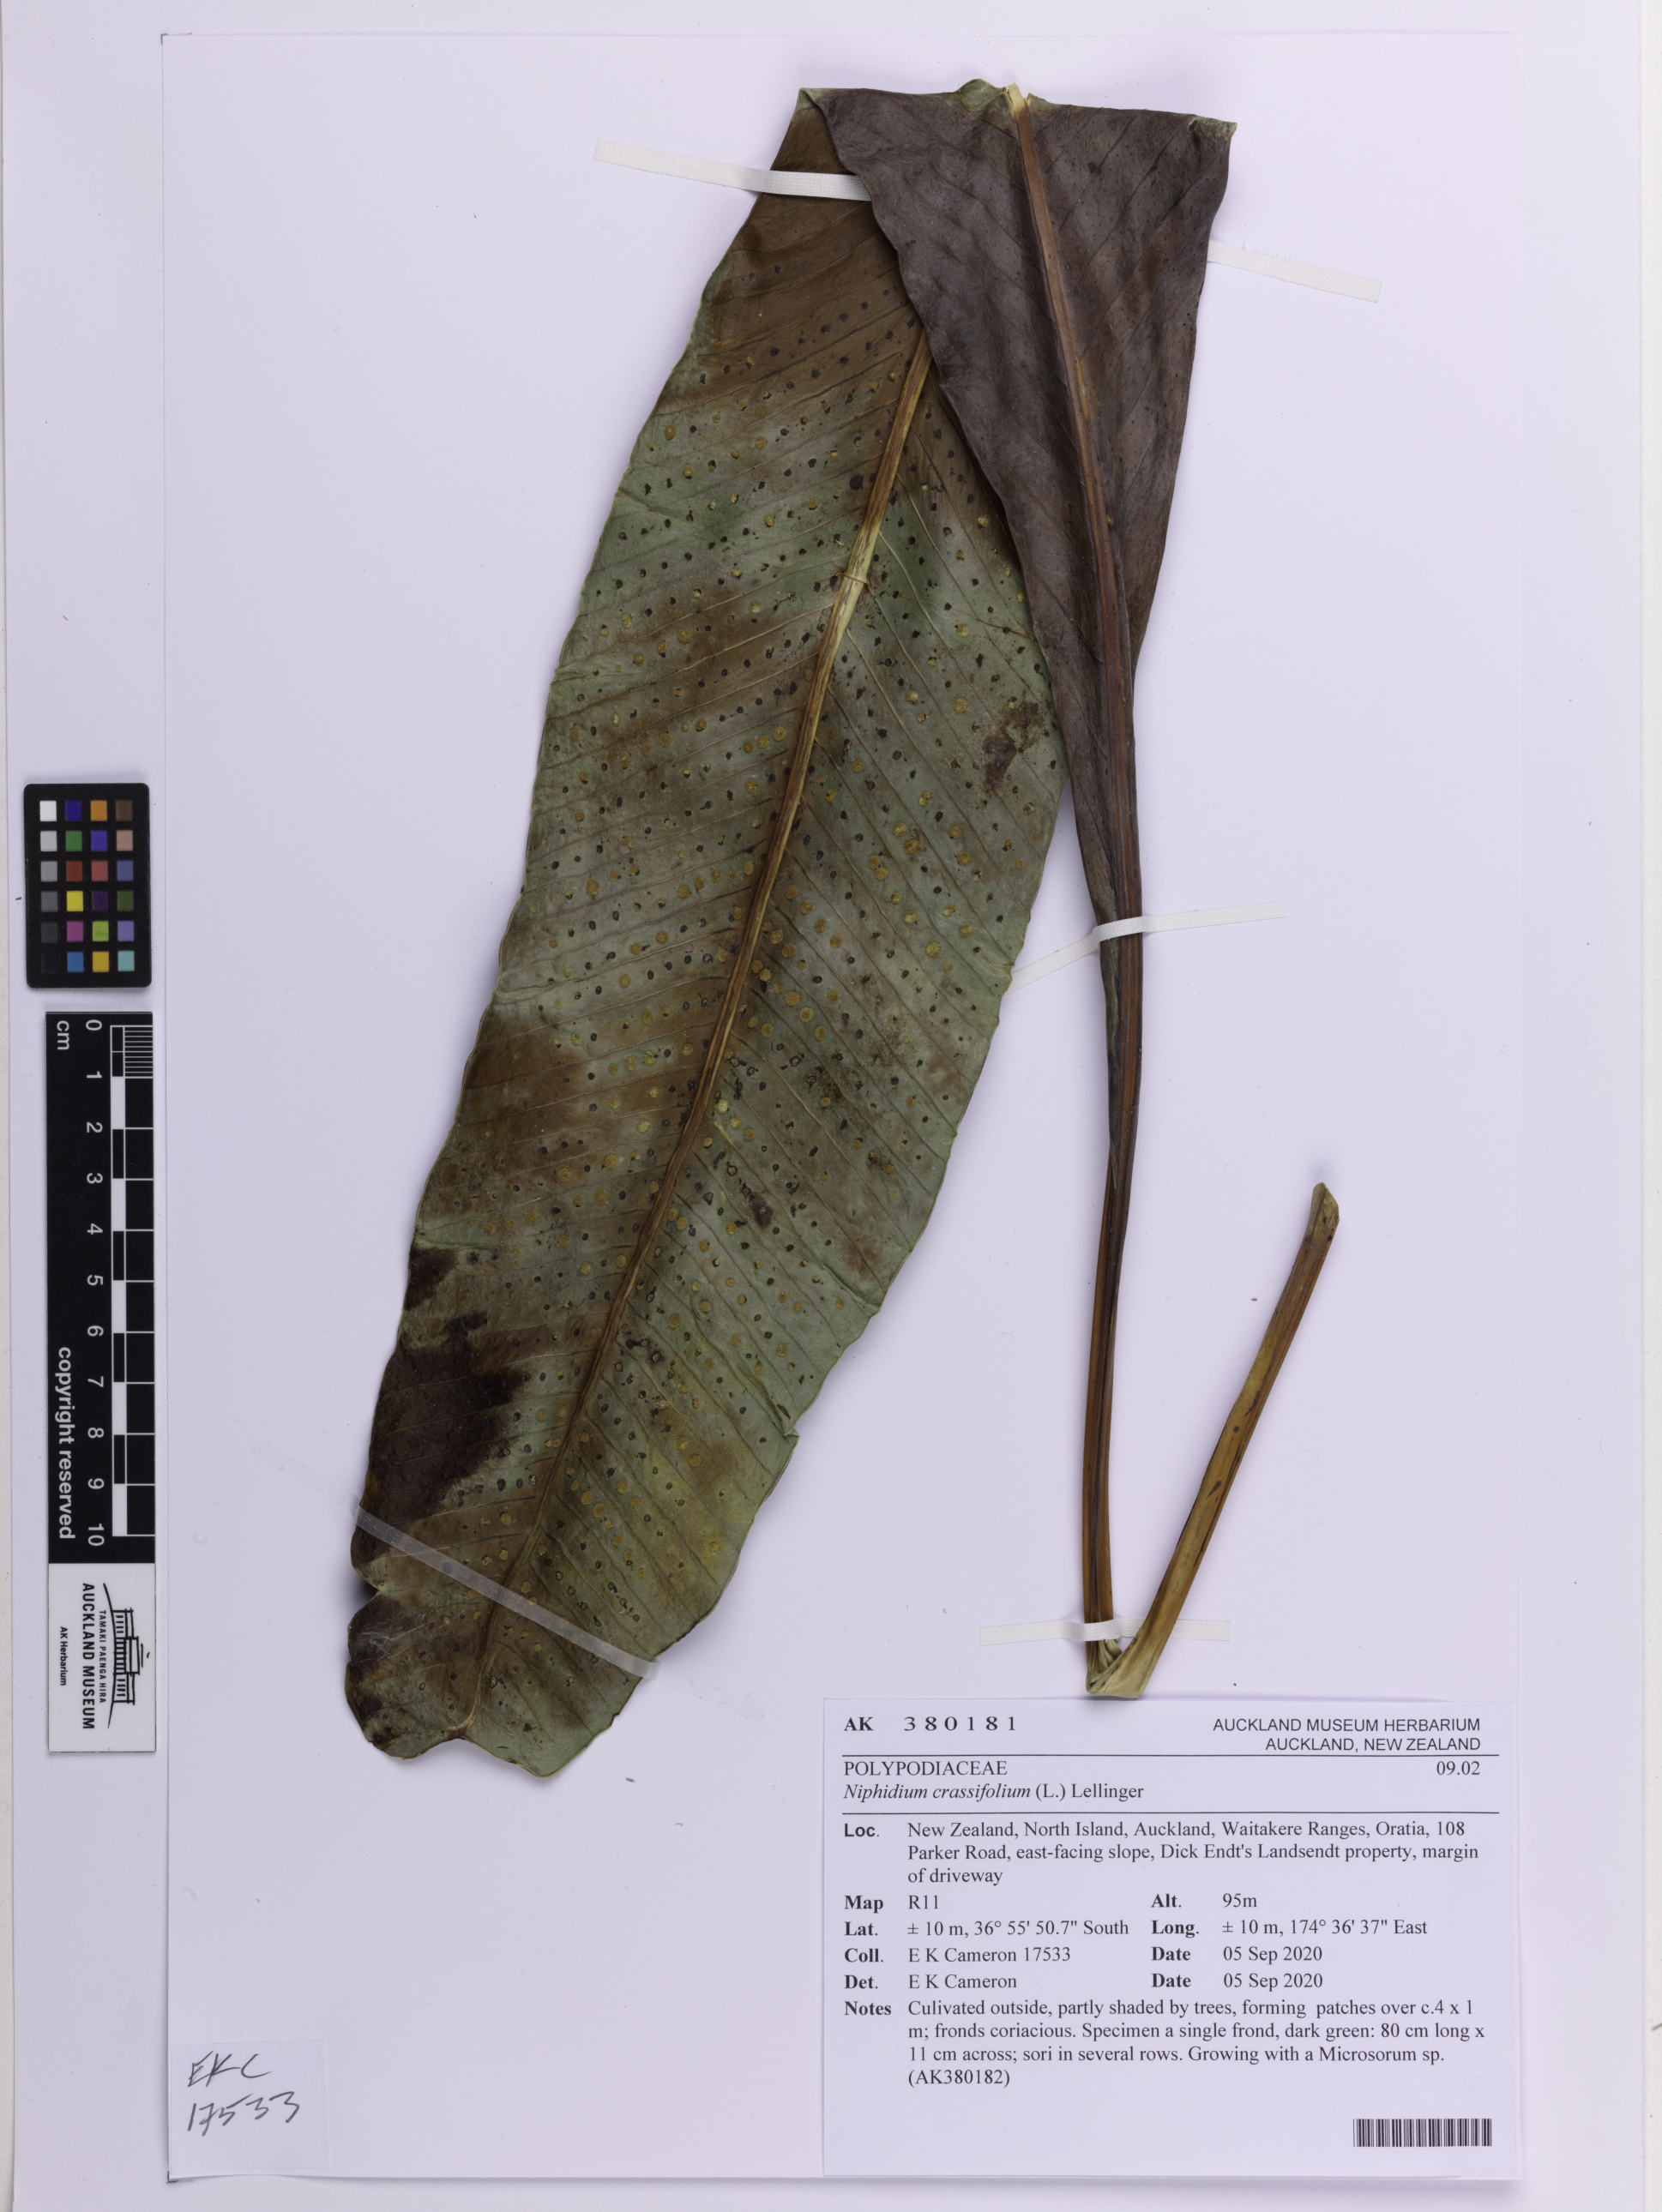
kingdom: Plantae
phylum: Tracheophyta
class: Polypodiopsida
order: Polypodiales
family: Polypodiaceae
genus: Niphidium
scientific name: Niphidium crassifolium
